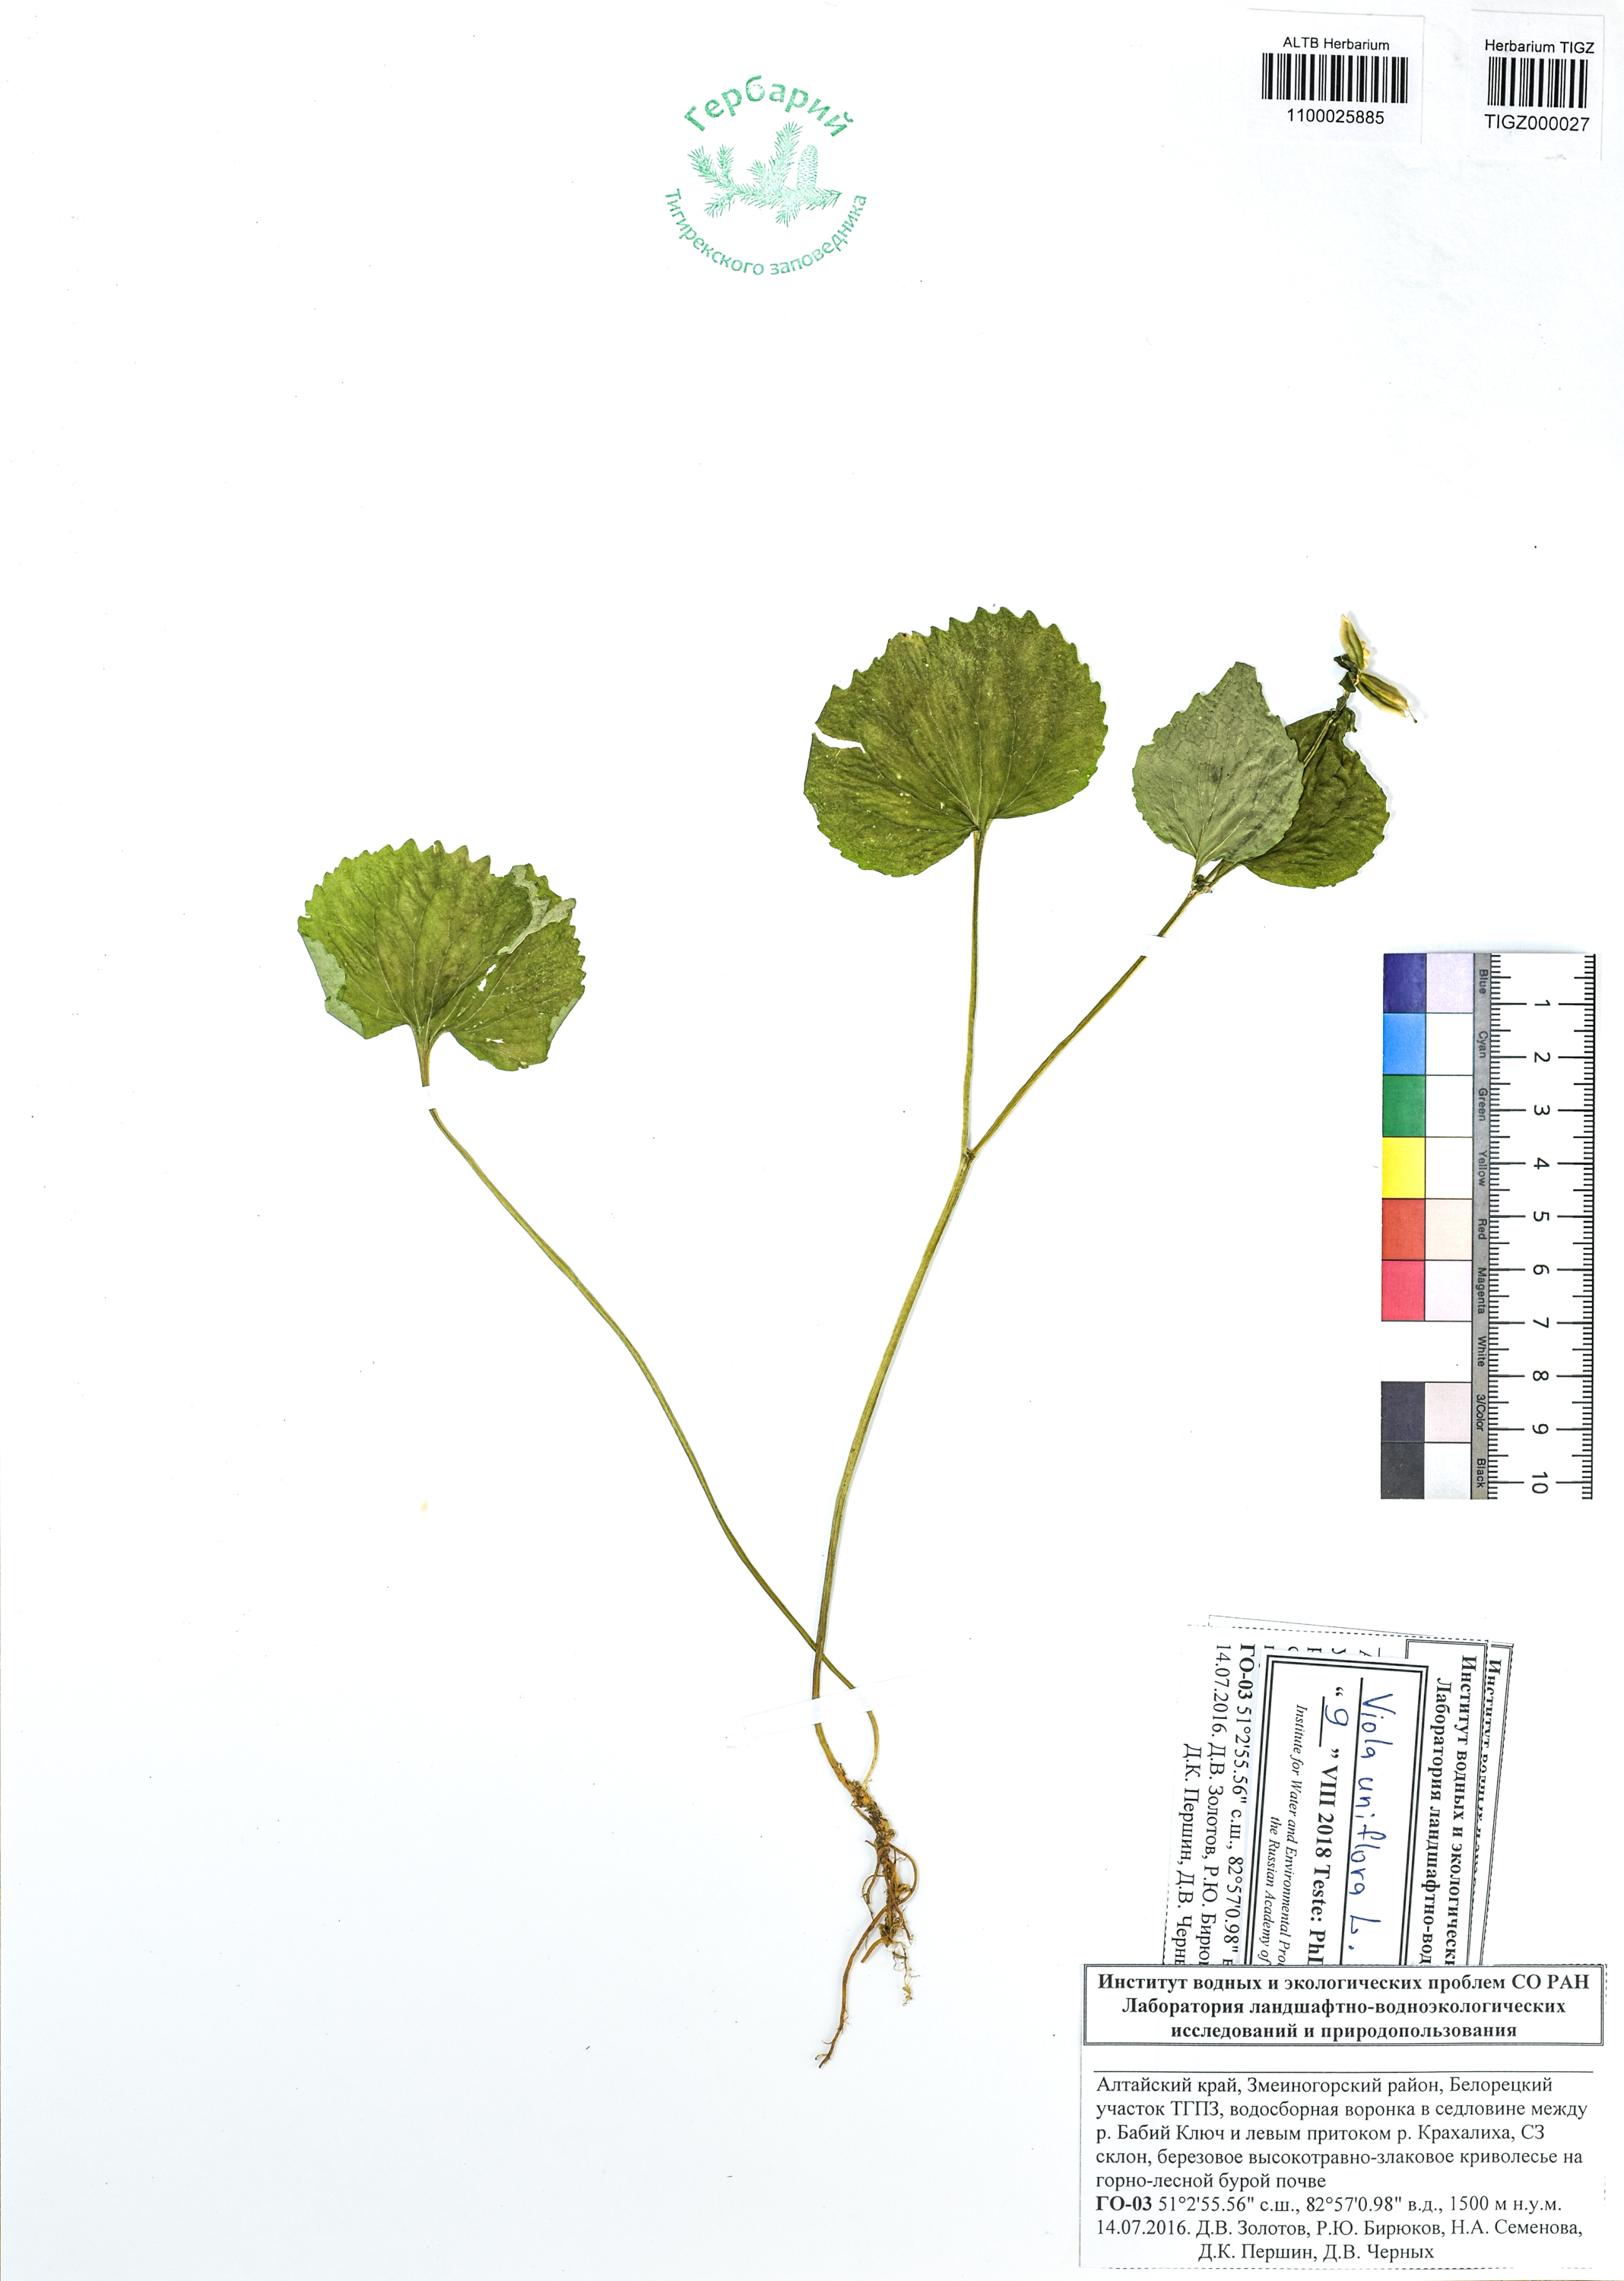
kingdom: Plantae
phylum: Tracheophyta
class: Magnoliopsida
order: Malpighiales
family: Violaceae
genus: Viola
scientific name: Viola uniflora
